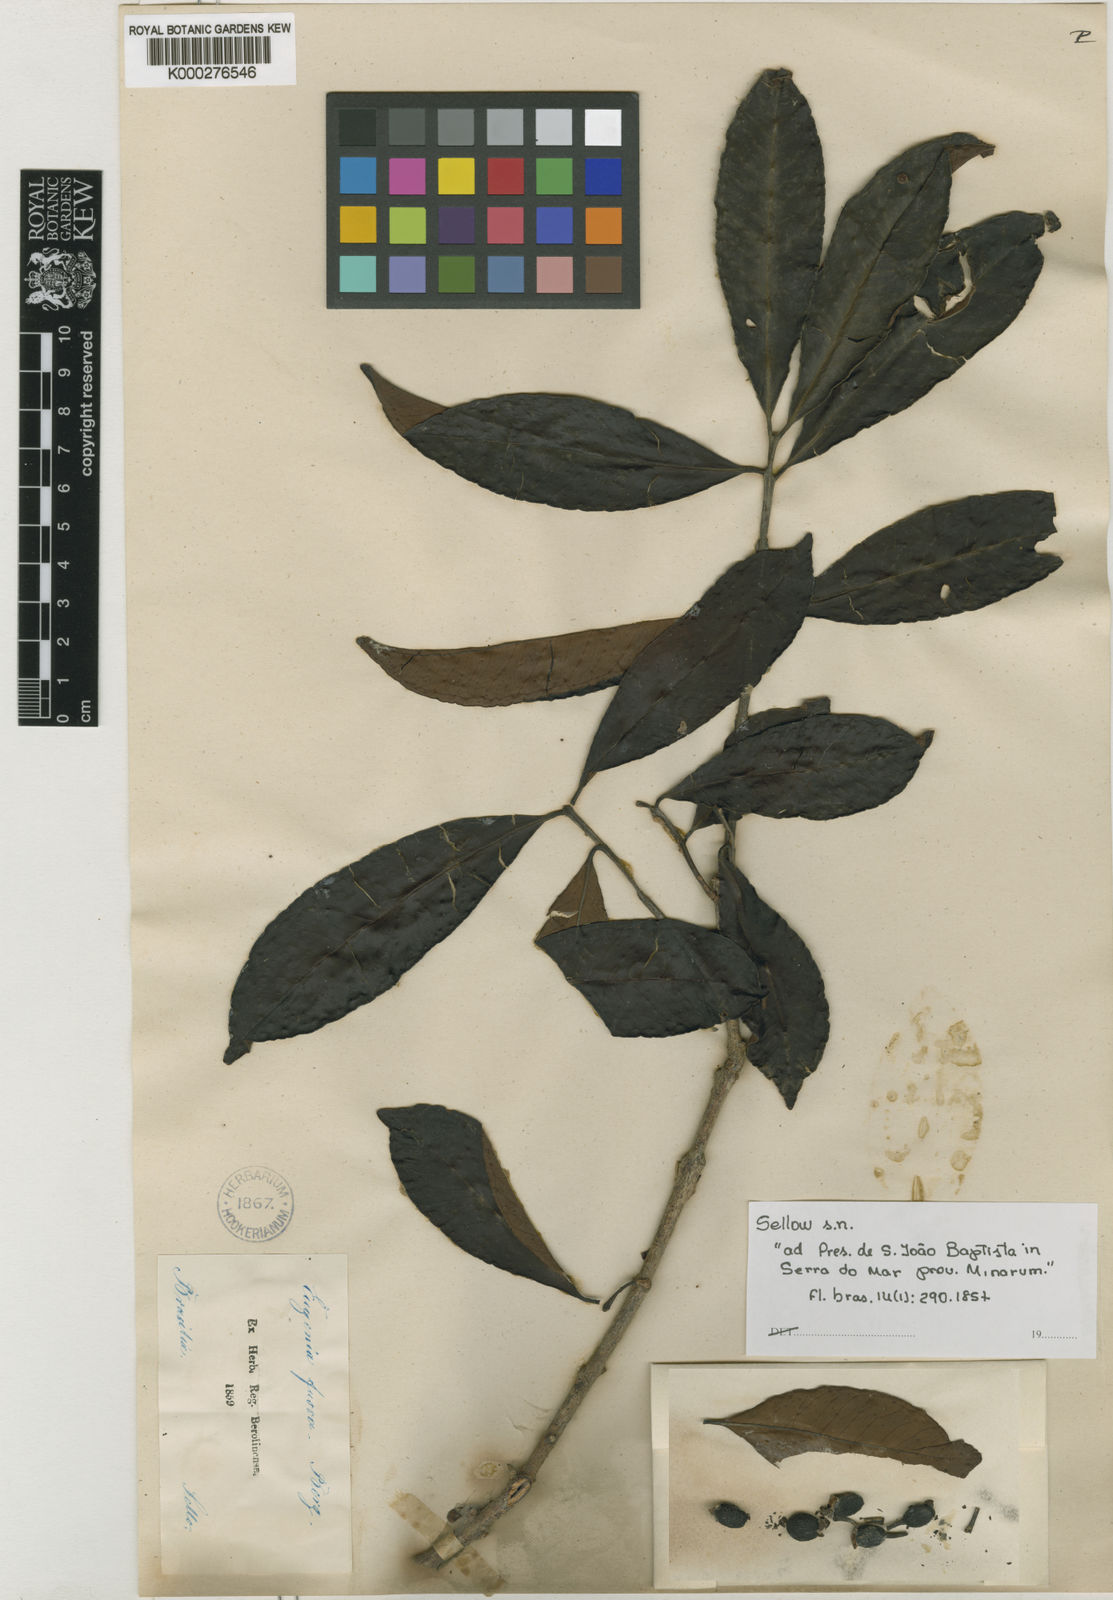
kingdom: Plantae
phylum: Tracheophyta
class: Magnoliopsida
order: Myrtales
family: Myrtaceae
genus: Eugenia
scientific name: Eugenia fusca
